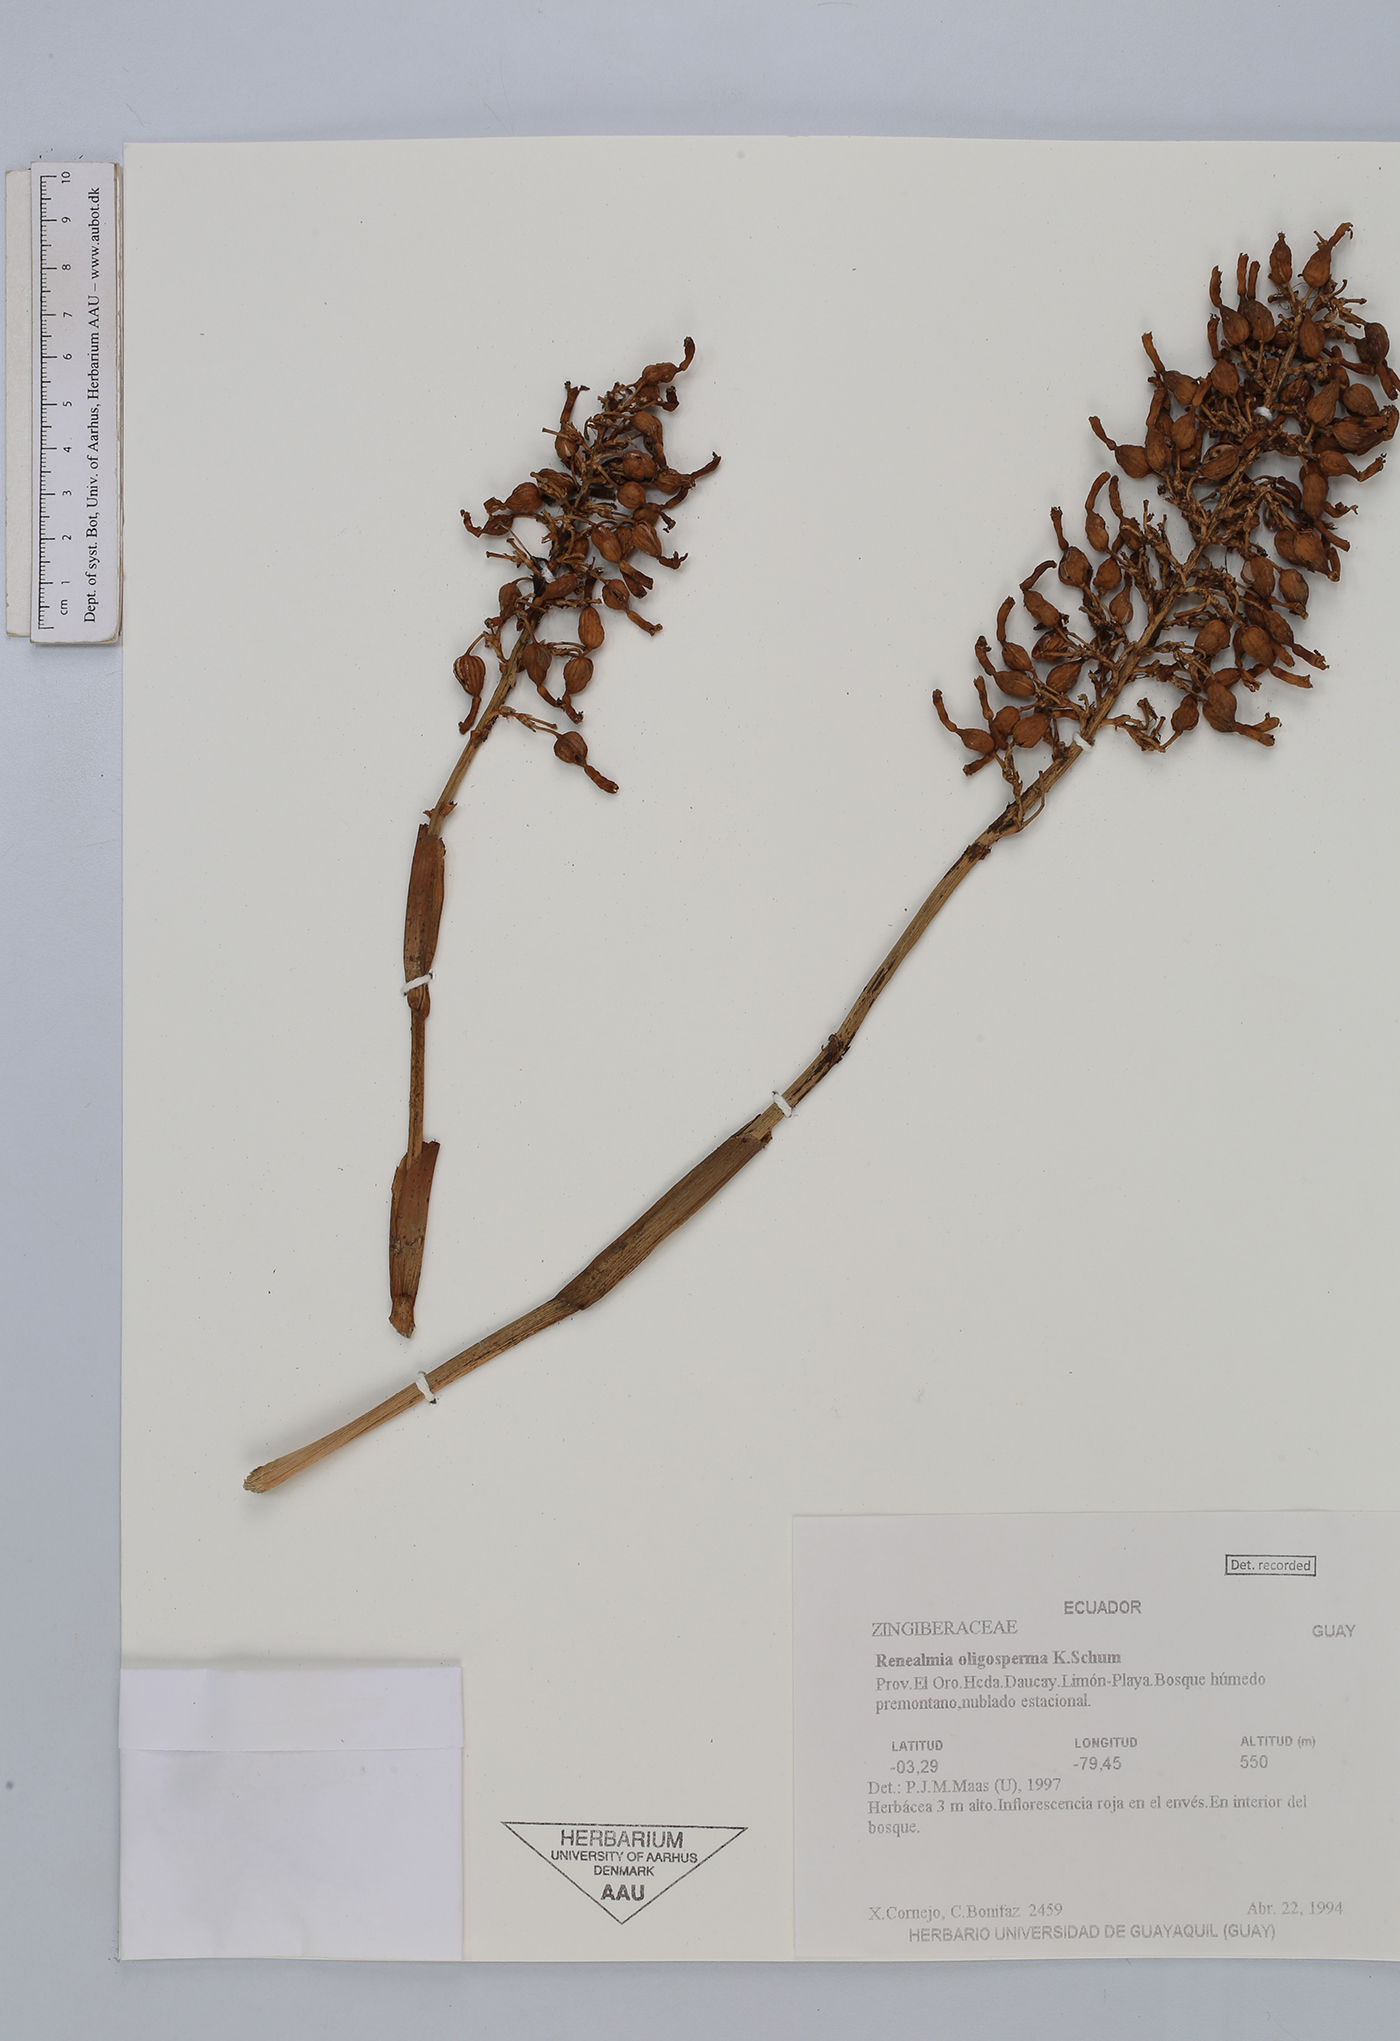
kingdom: Plantae
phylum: Tracheophyta
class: Liliopsida
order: Zingiberales
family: Zingiberaceae
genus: Renealmia
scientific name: Renealmia oligosperma
